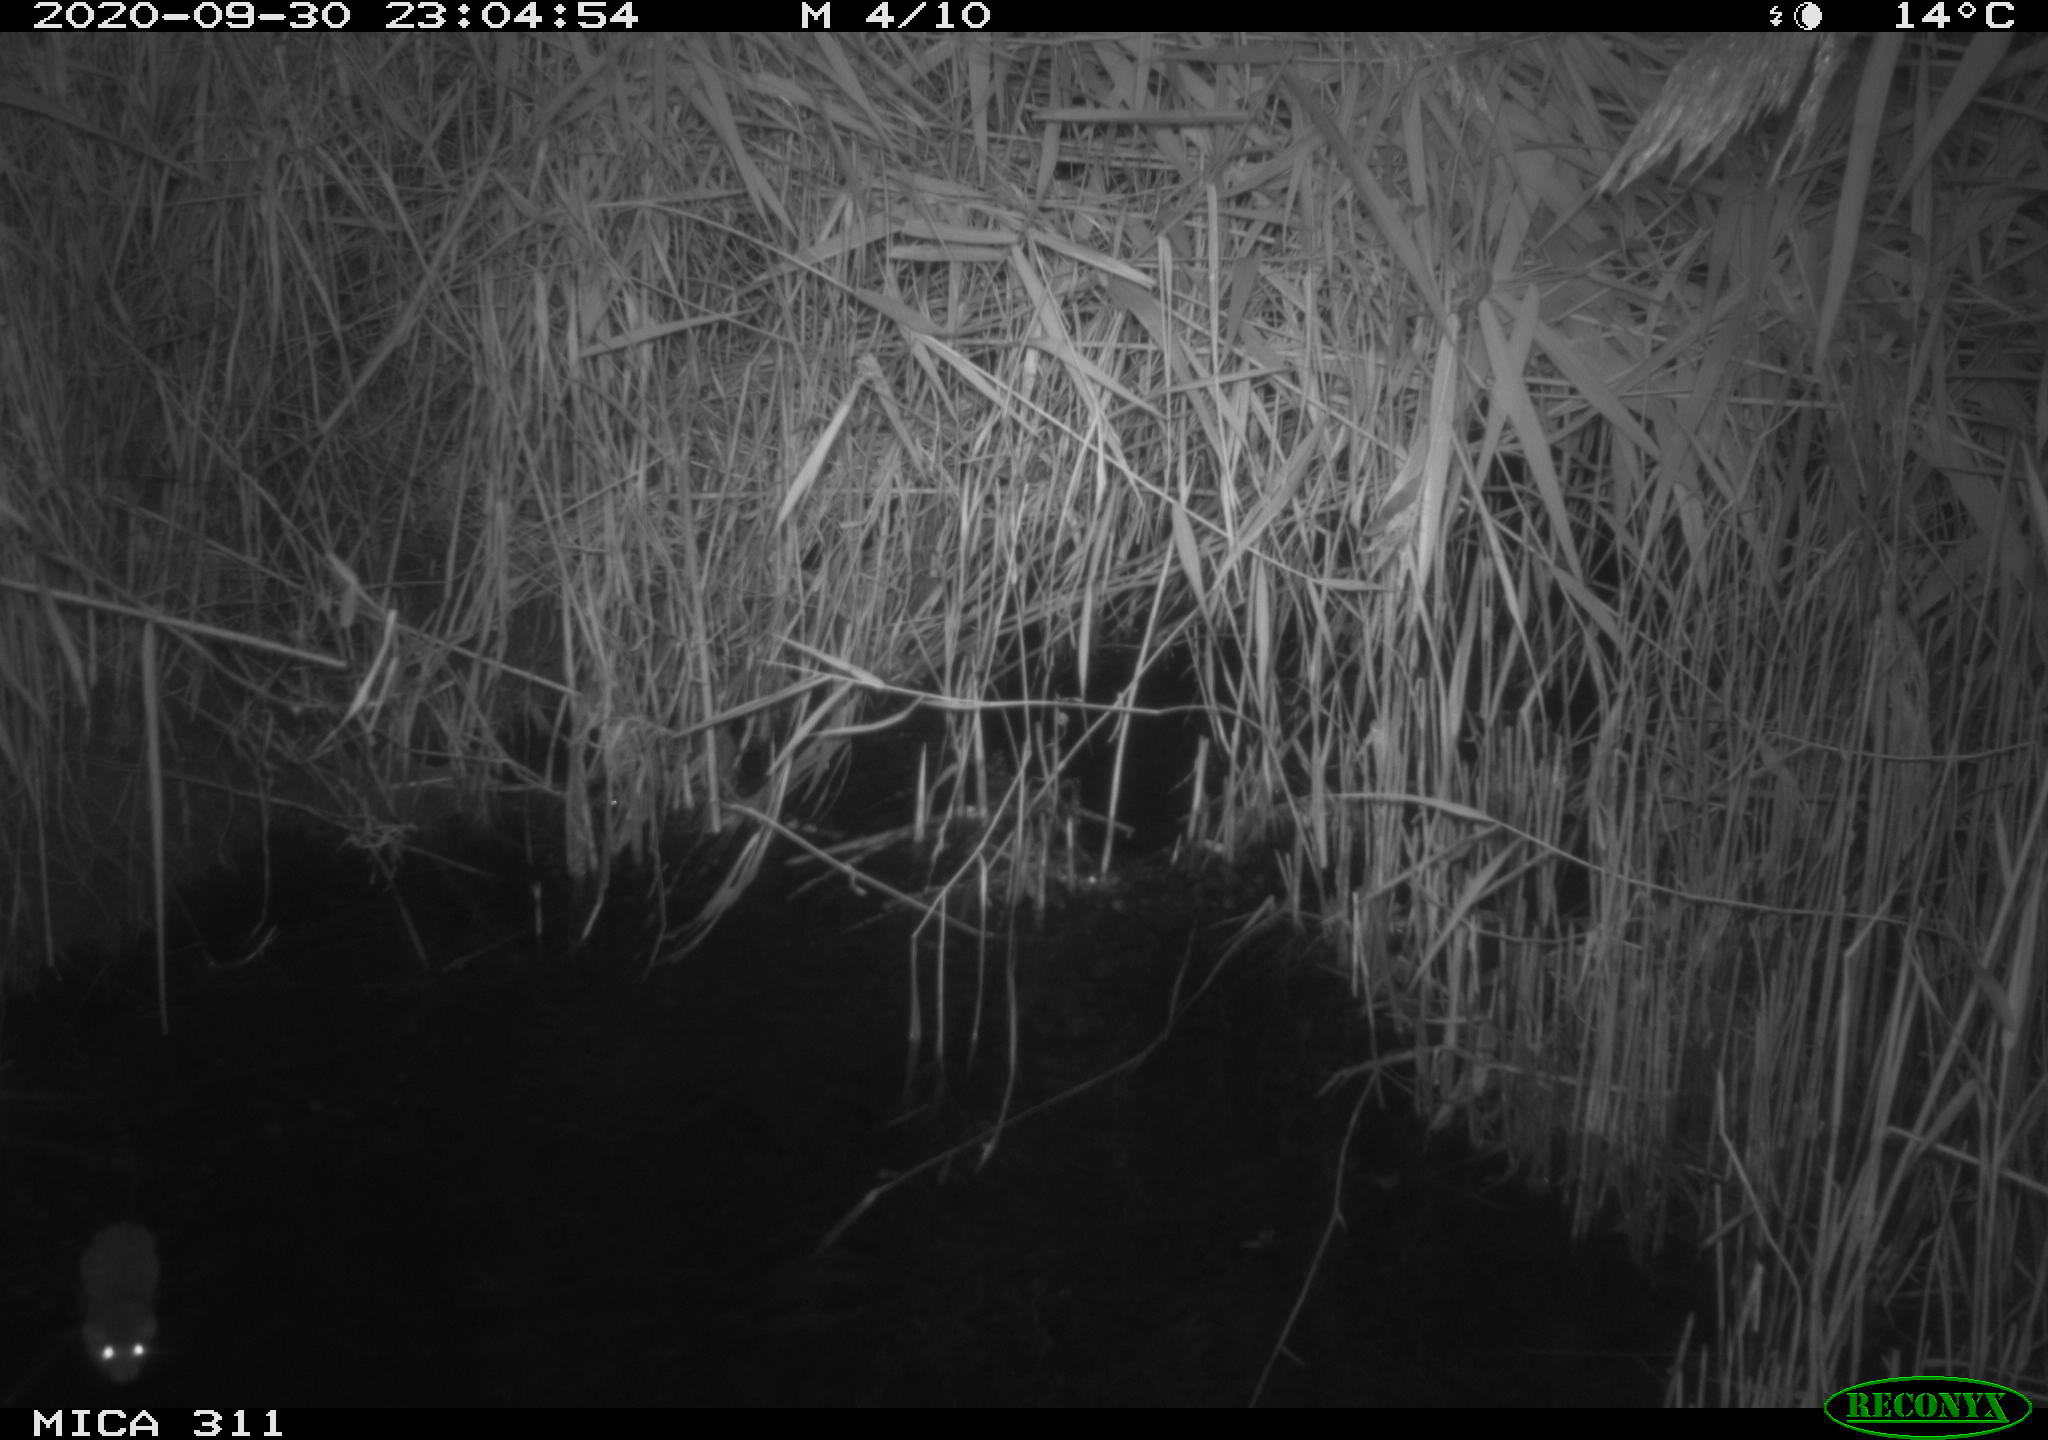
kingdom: Animalia
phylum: Chordata
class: Mammalia
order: Rodentia
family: Muridae
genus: Rattus
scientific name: Rattus norvegicus
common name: Brown rat
